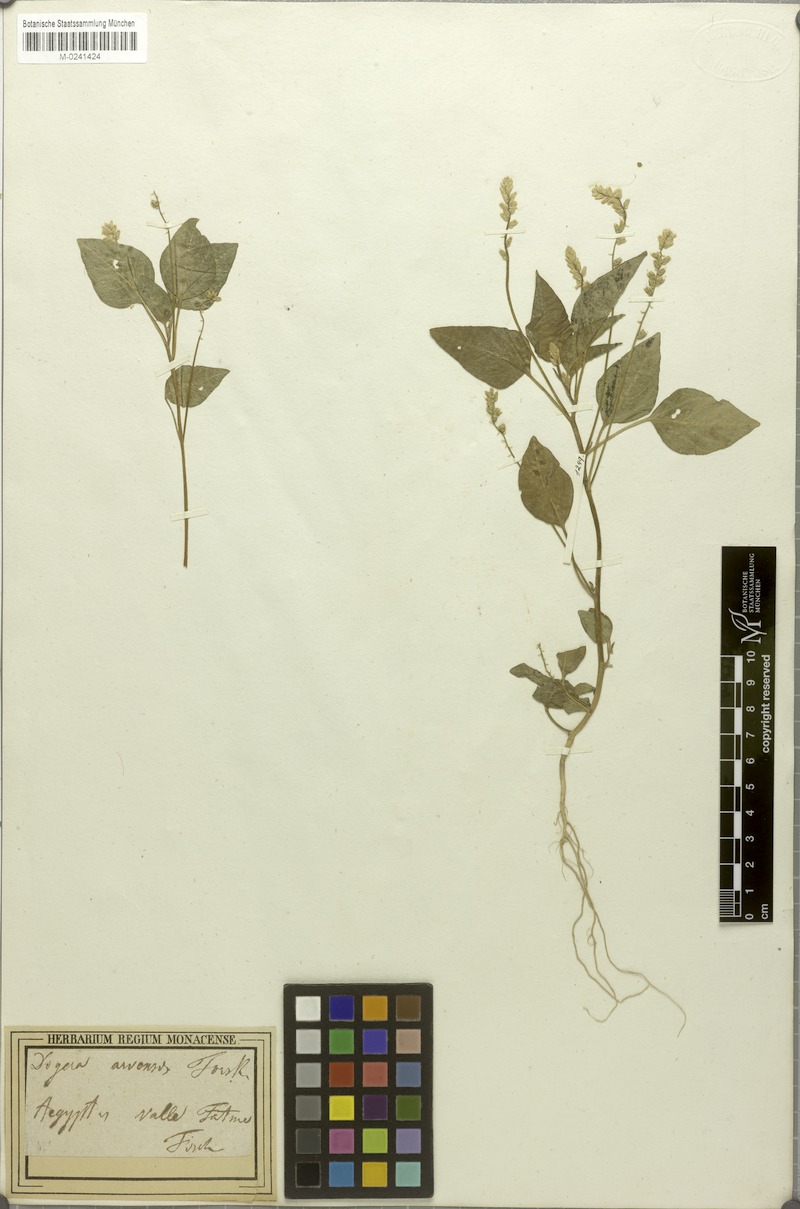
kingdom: Plantae
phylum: Tracheophyta
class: Magnoliopsida
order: Caryophyllales
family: Amaranthaceae
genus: Digera
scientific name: Digera muricata
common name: False amaranth
